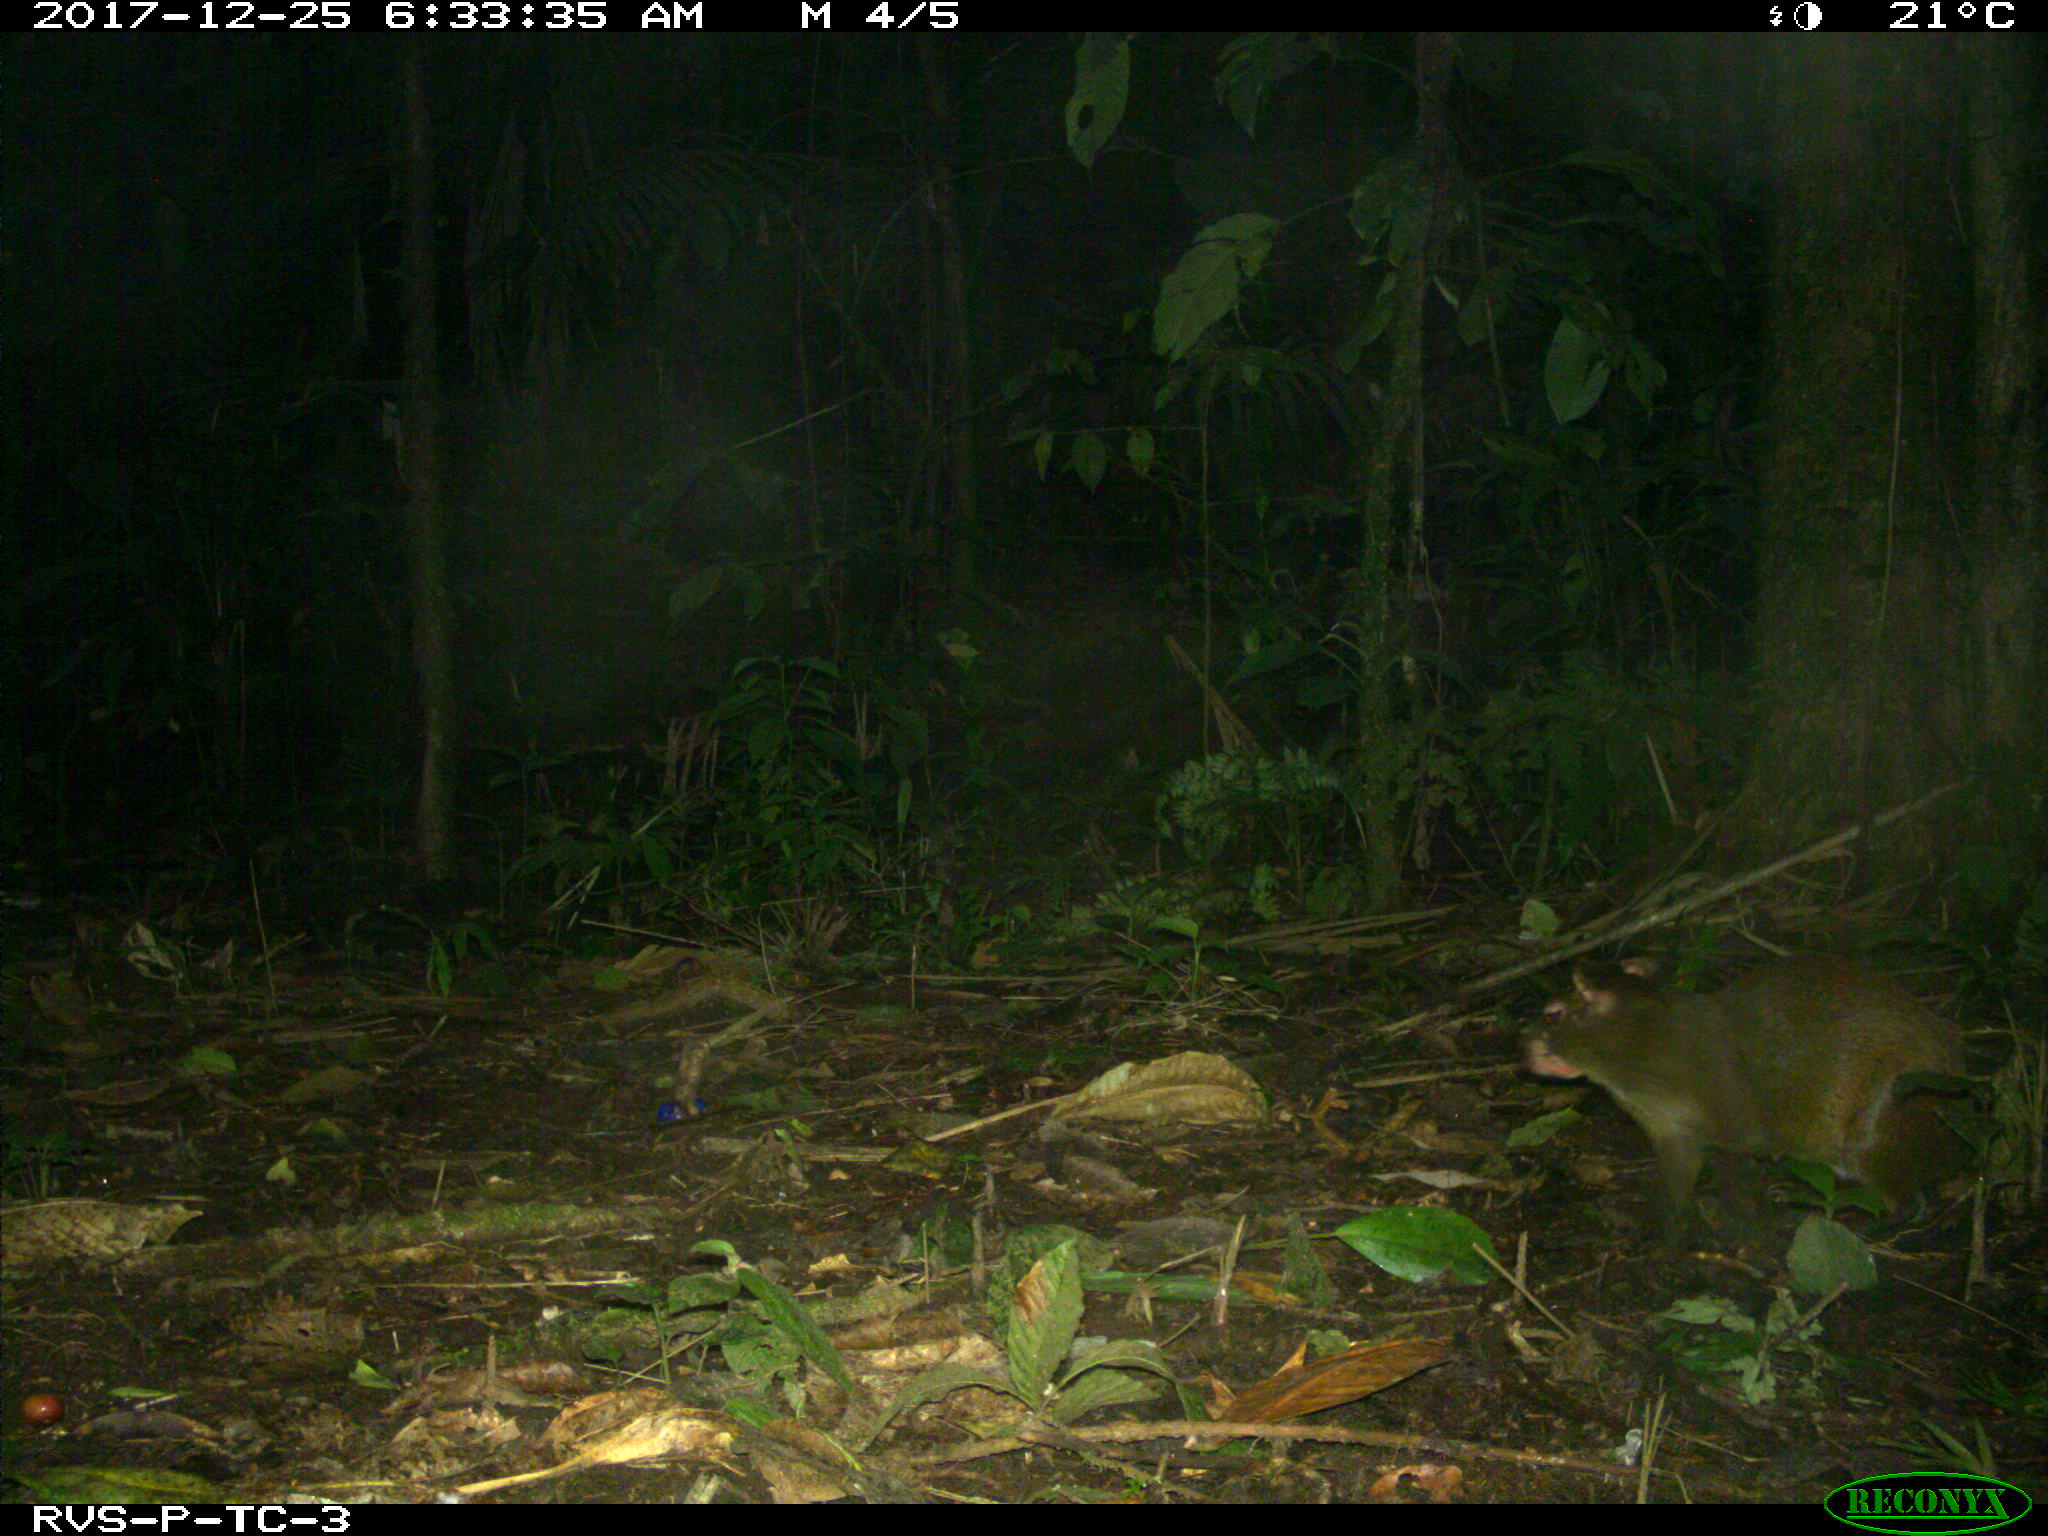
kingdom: Animalia
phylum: Chordata
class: Mammalia
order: Rodentia
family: Dasyproctidae
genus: Dasyprocta
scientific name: Dasyprocta punctata
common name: Central american agouti
